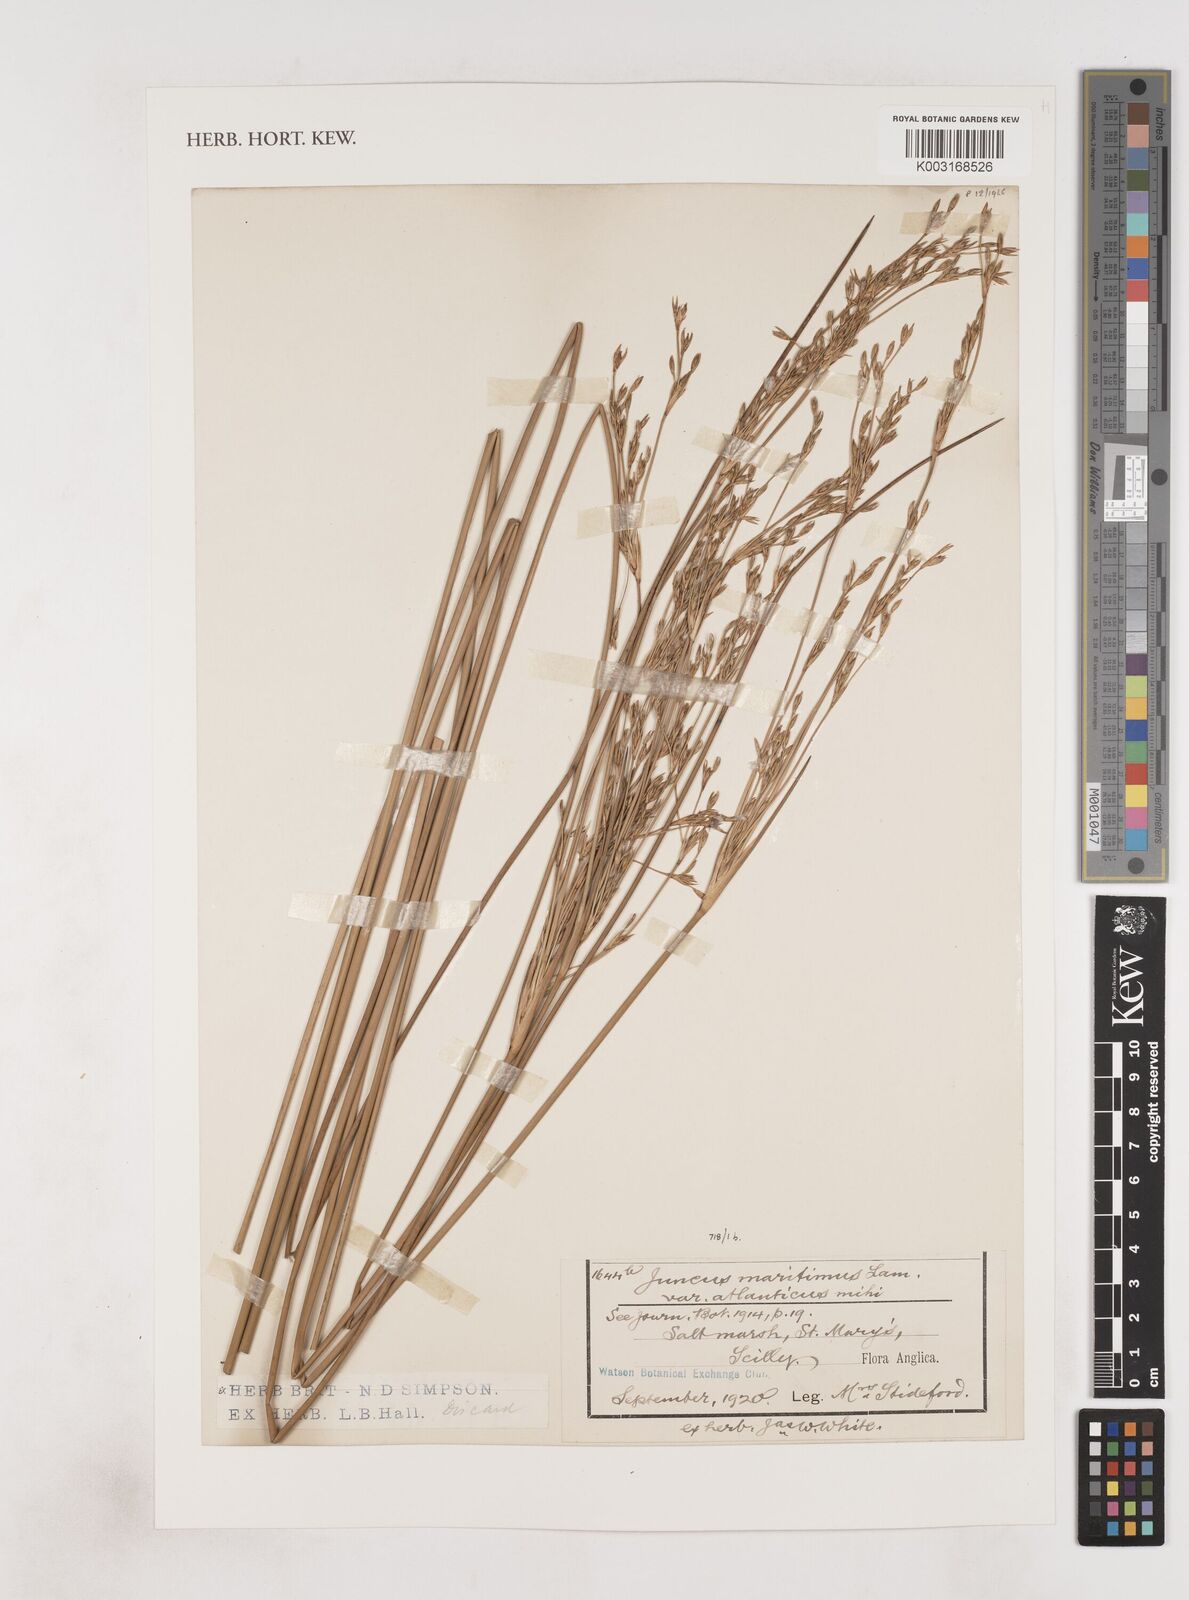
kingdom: Plantae
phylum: Tracheophyta
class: Liliopsida
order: Poales
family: Juncaceae
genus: Juncus
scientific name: Juncus maritimus
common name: Sea rush
